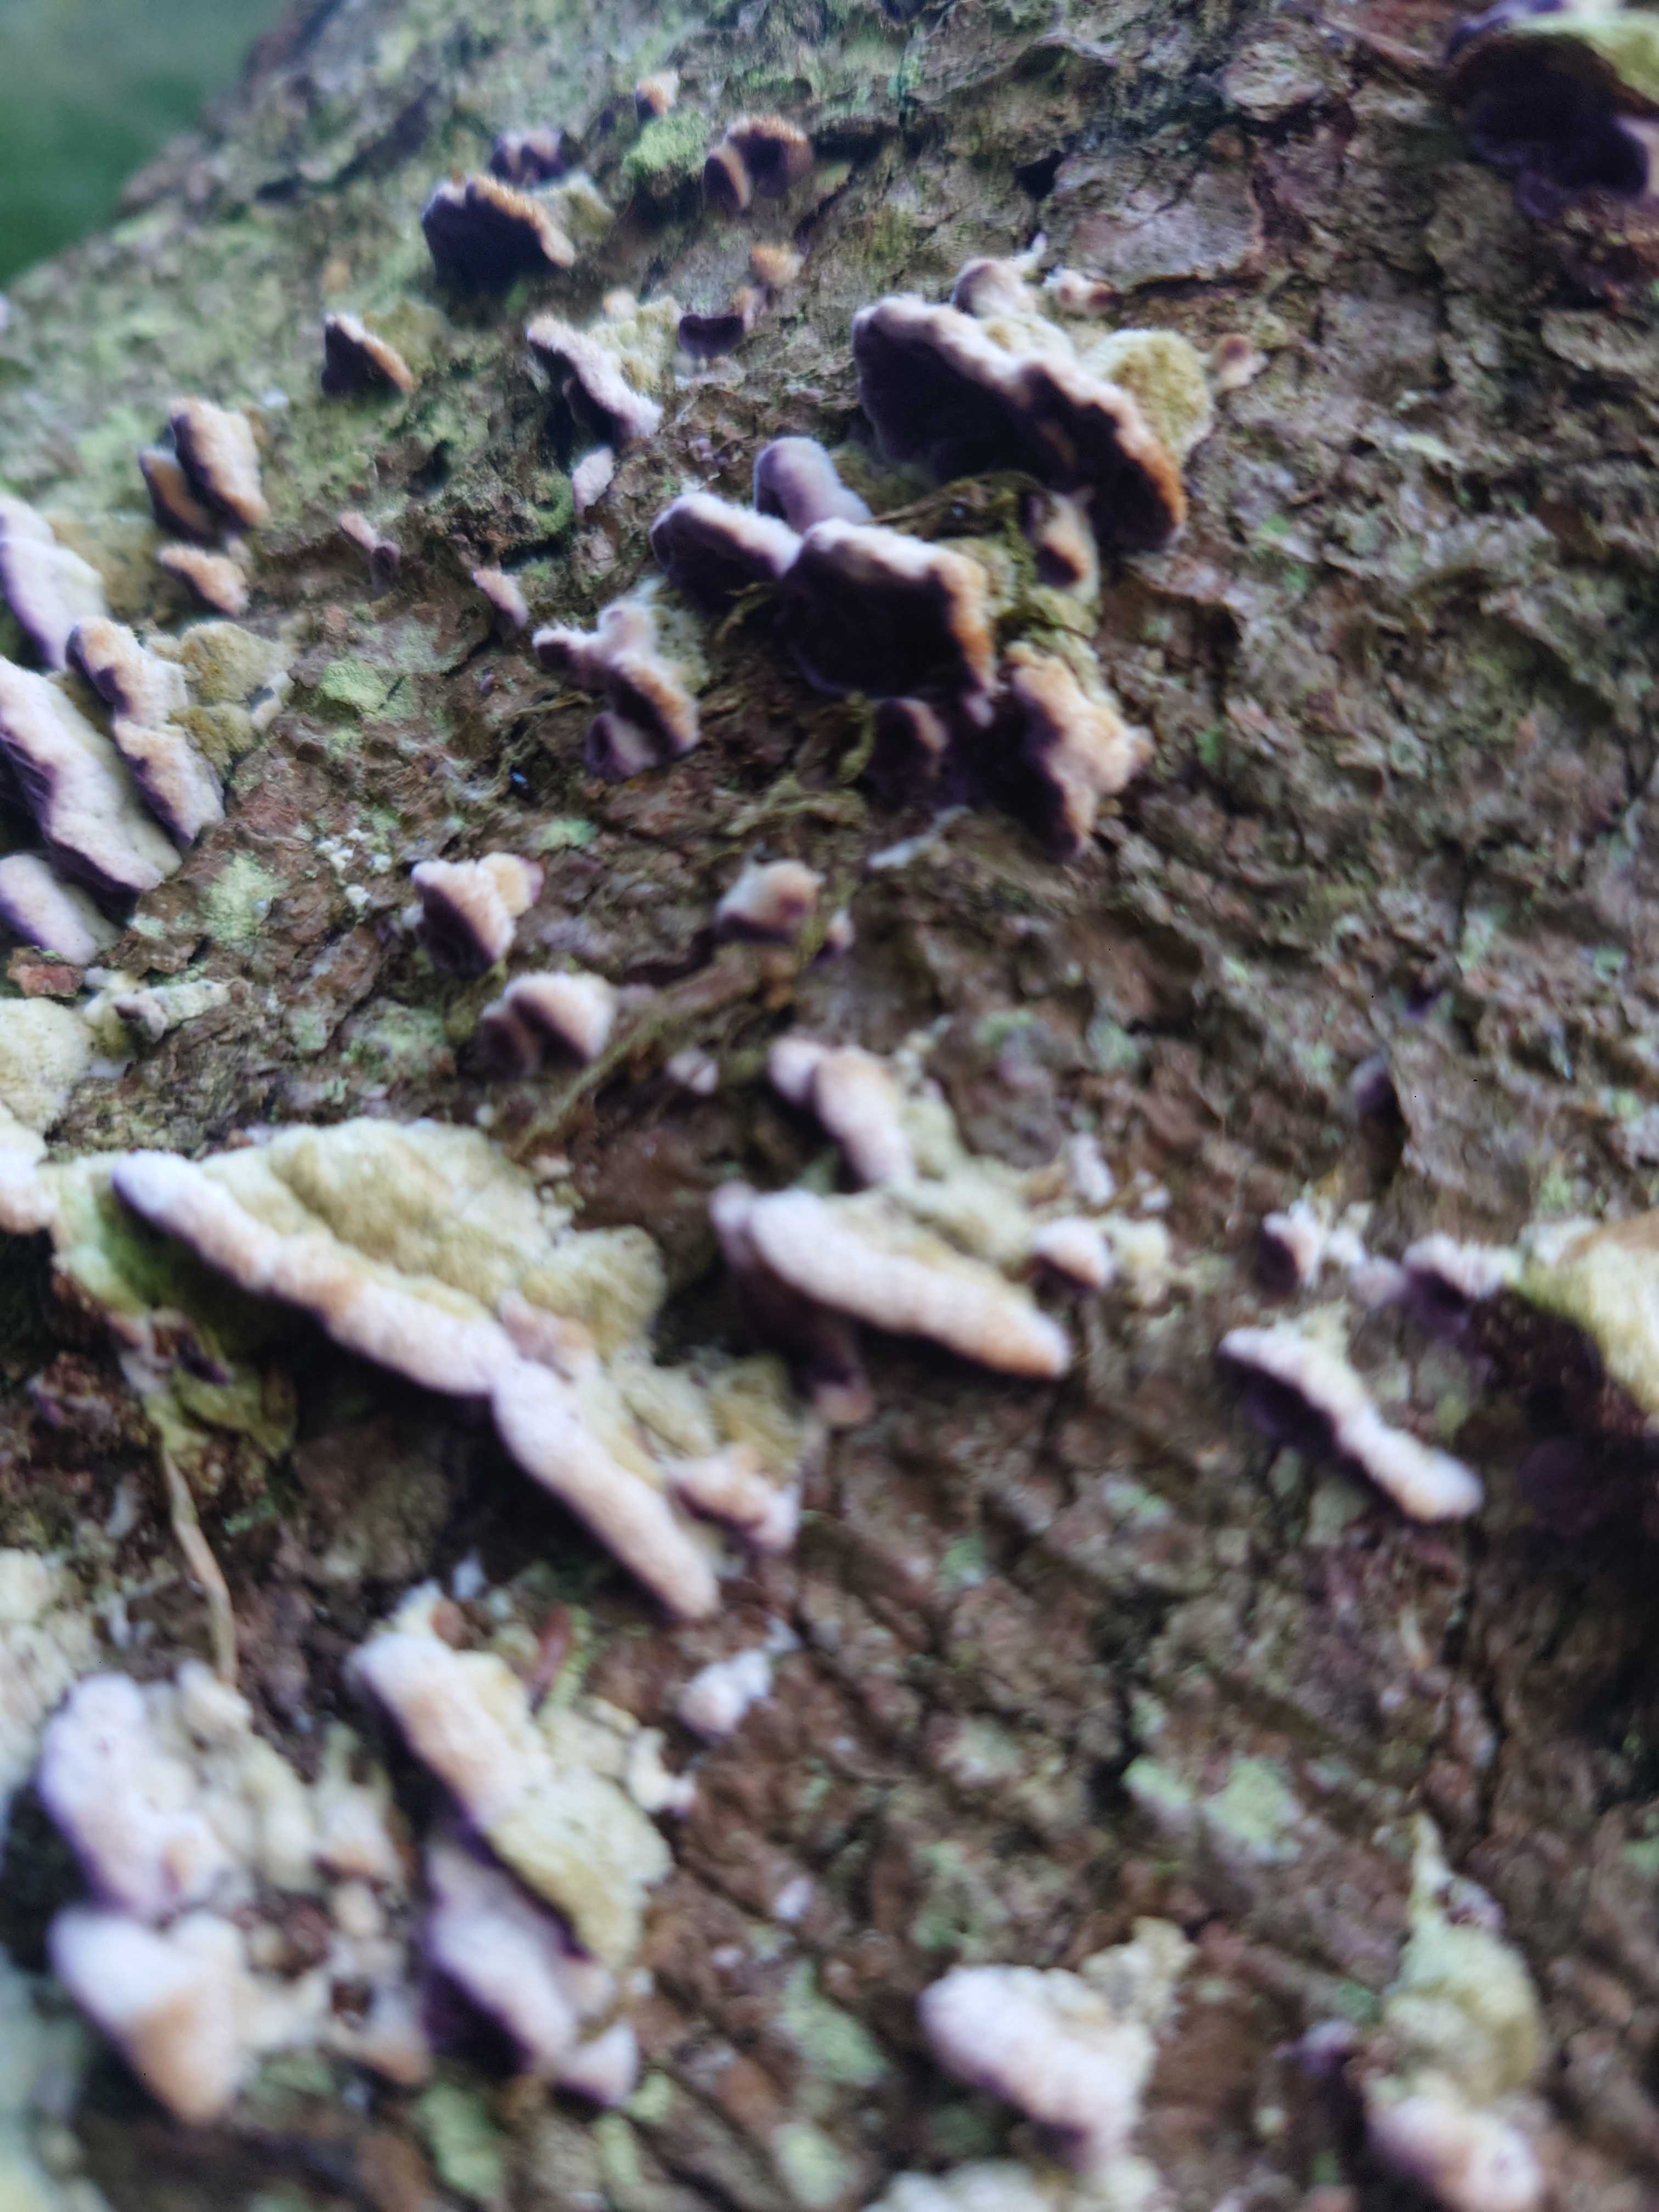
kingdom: Fungi
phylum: Basidiomycota
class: Agaricomycetes
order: Hymenochaetales
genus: Trichaptum
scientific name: Trichaptum abietinum
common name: almindelig violporesvamp
